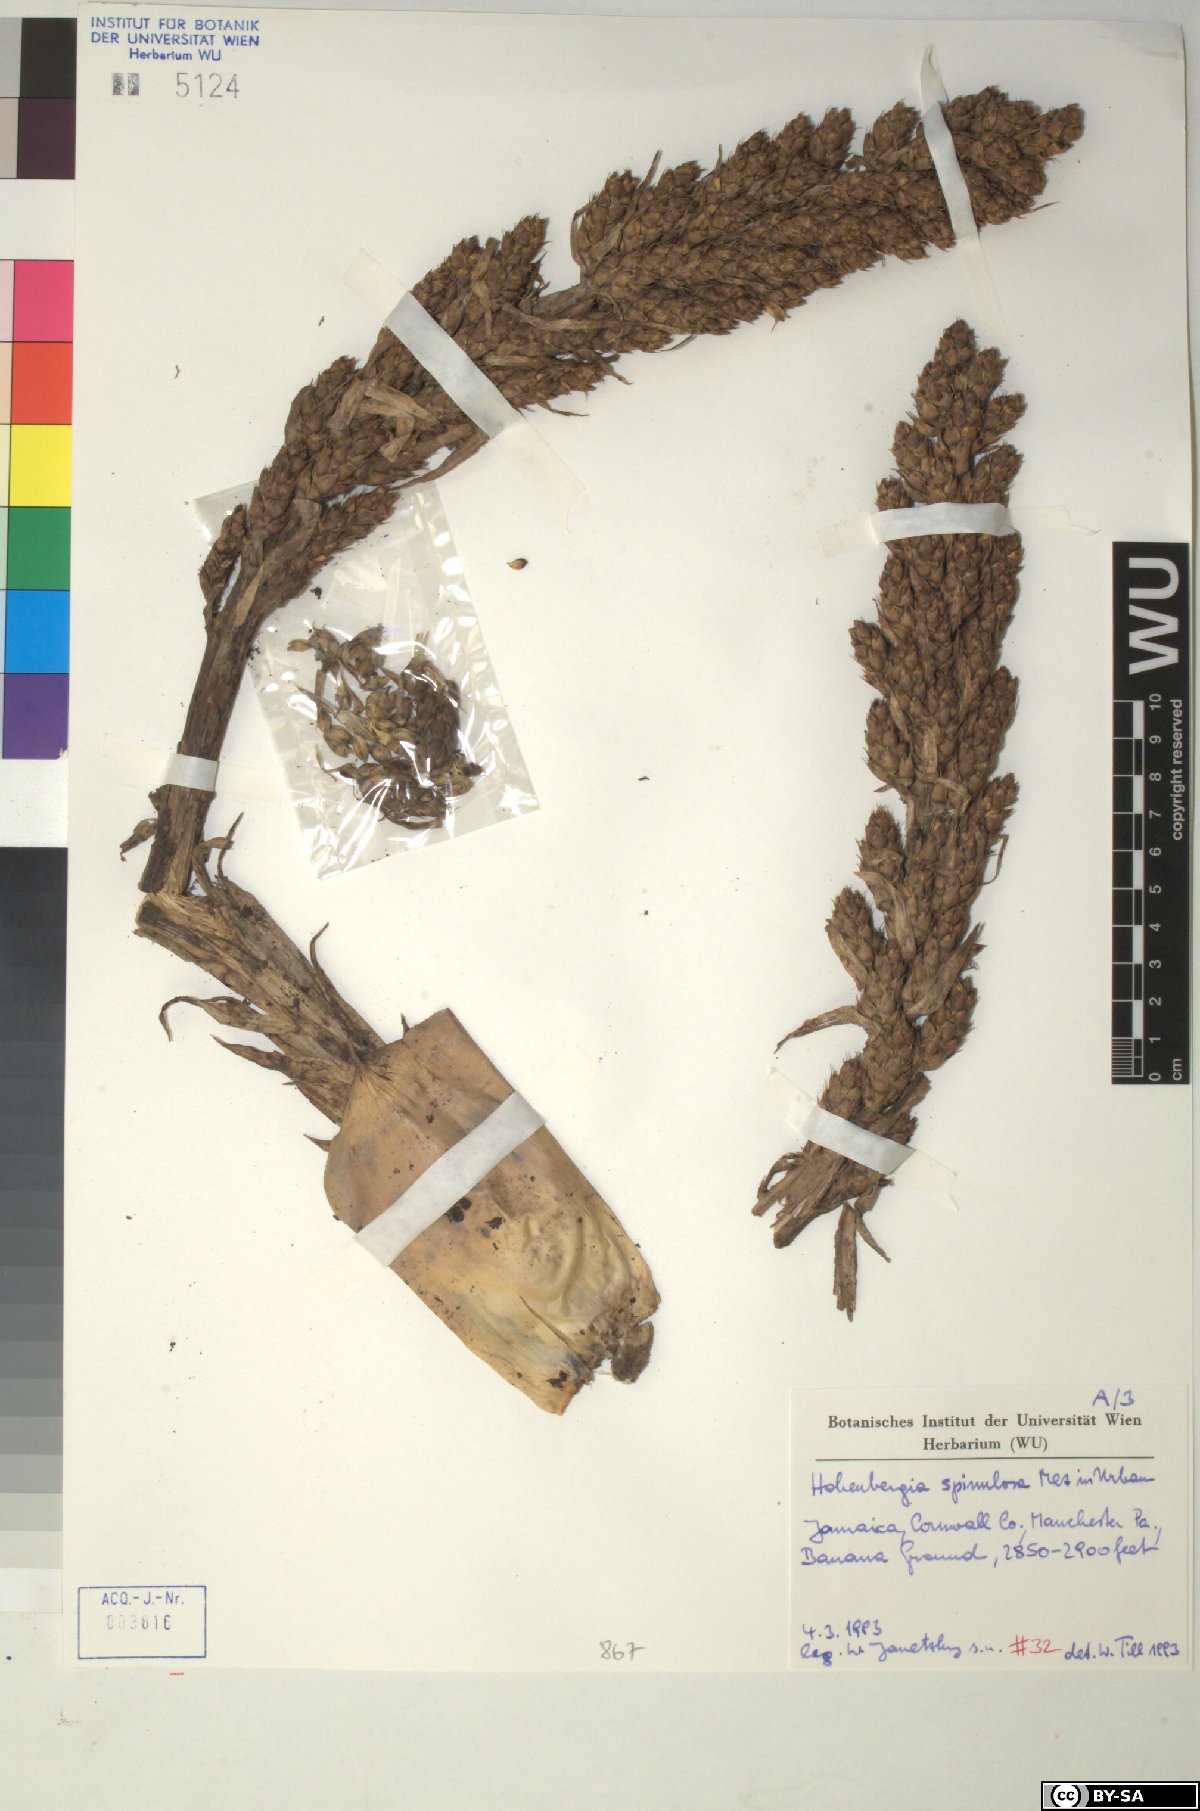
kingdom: Plantae
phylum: Tracheophyta
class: Liliopsida
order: Poales
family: Bromeliaceae
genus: Wittmackia
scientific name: Wittmackia spinulosa
